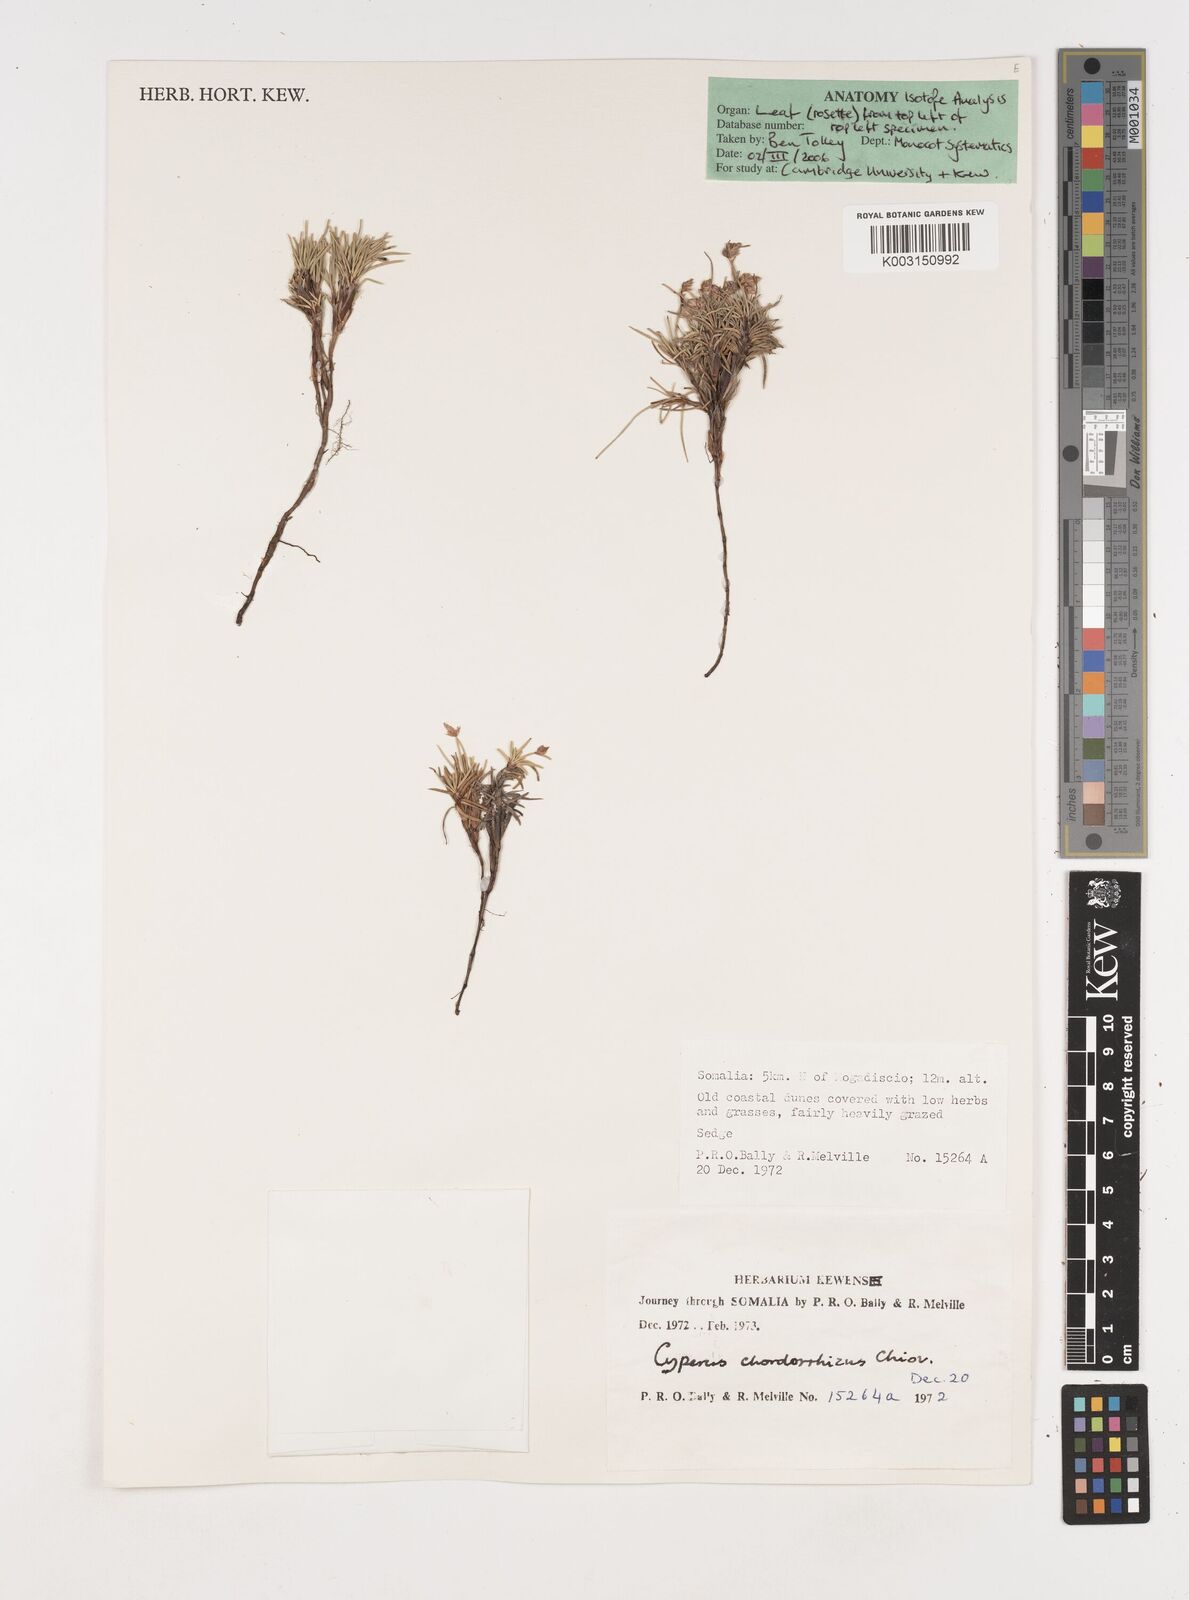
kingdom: Plantae
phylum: Tracheophyta
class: Liliopsida
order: Poales
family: Cyperaceae
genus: Cyperus
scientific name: Cyperus chordorrhizus
